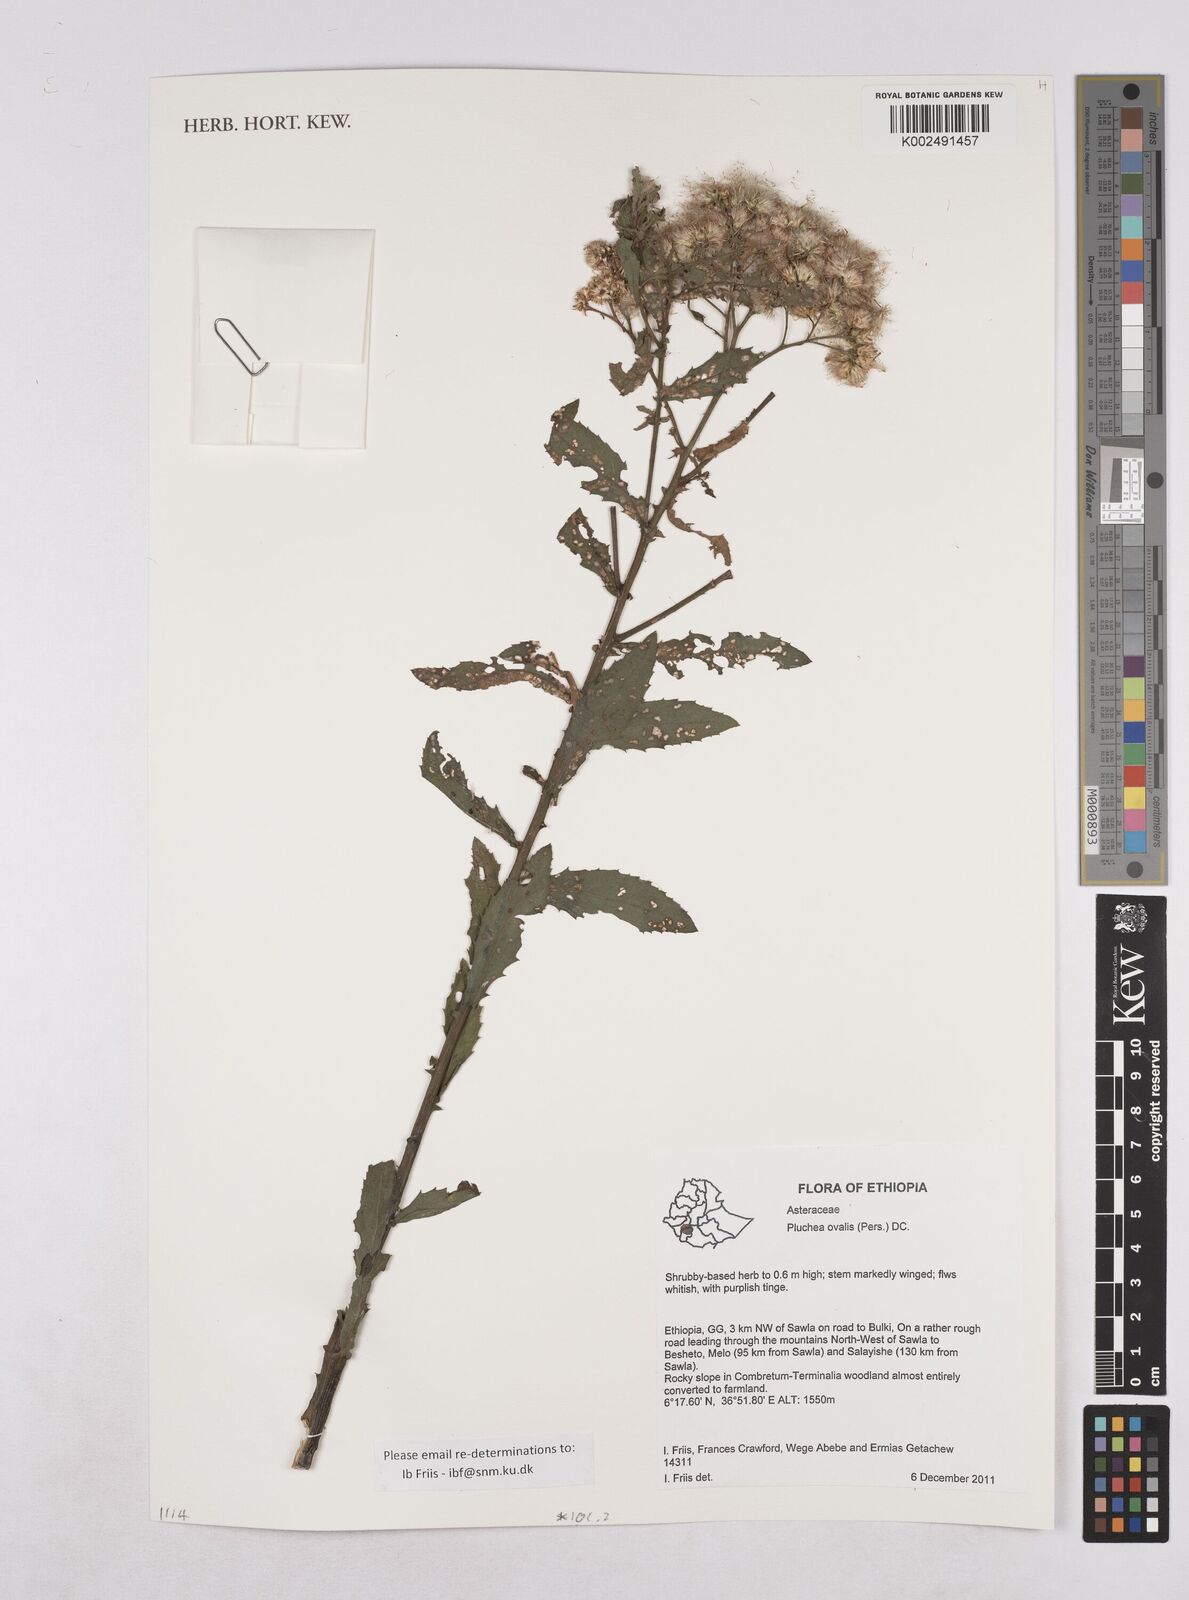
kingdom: Plantae
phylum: Tracheophyta
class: Magnoliopsida
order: Asterales
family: Asteraceae
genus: Pluchea
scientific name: Pluchea ovalis
